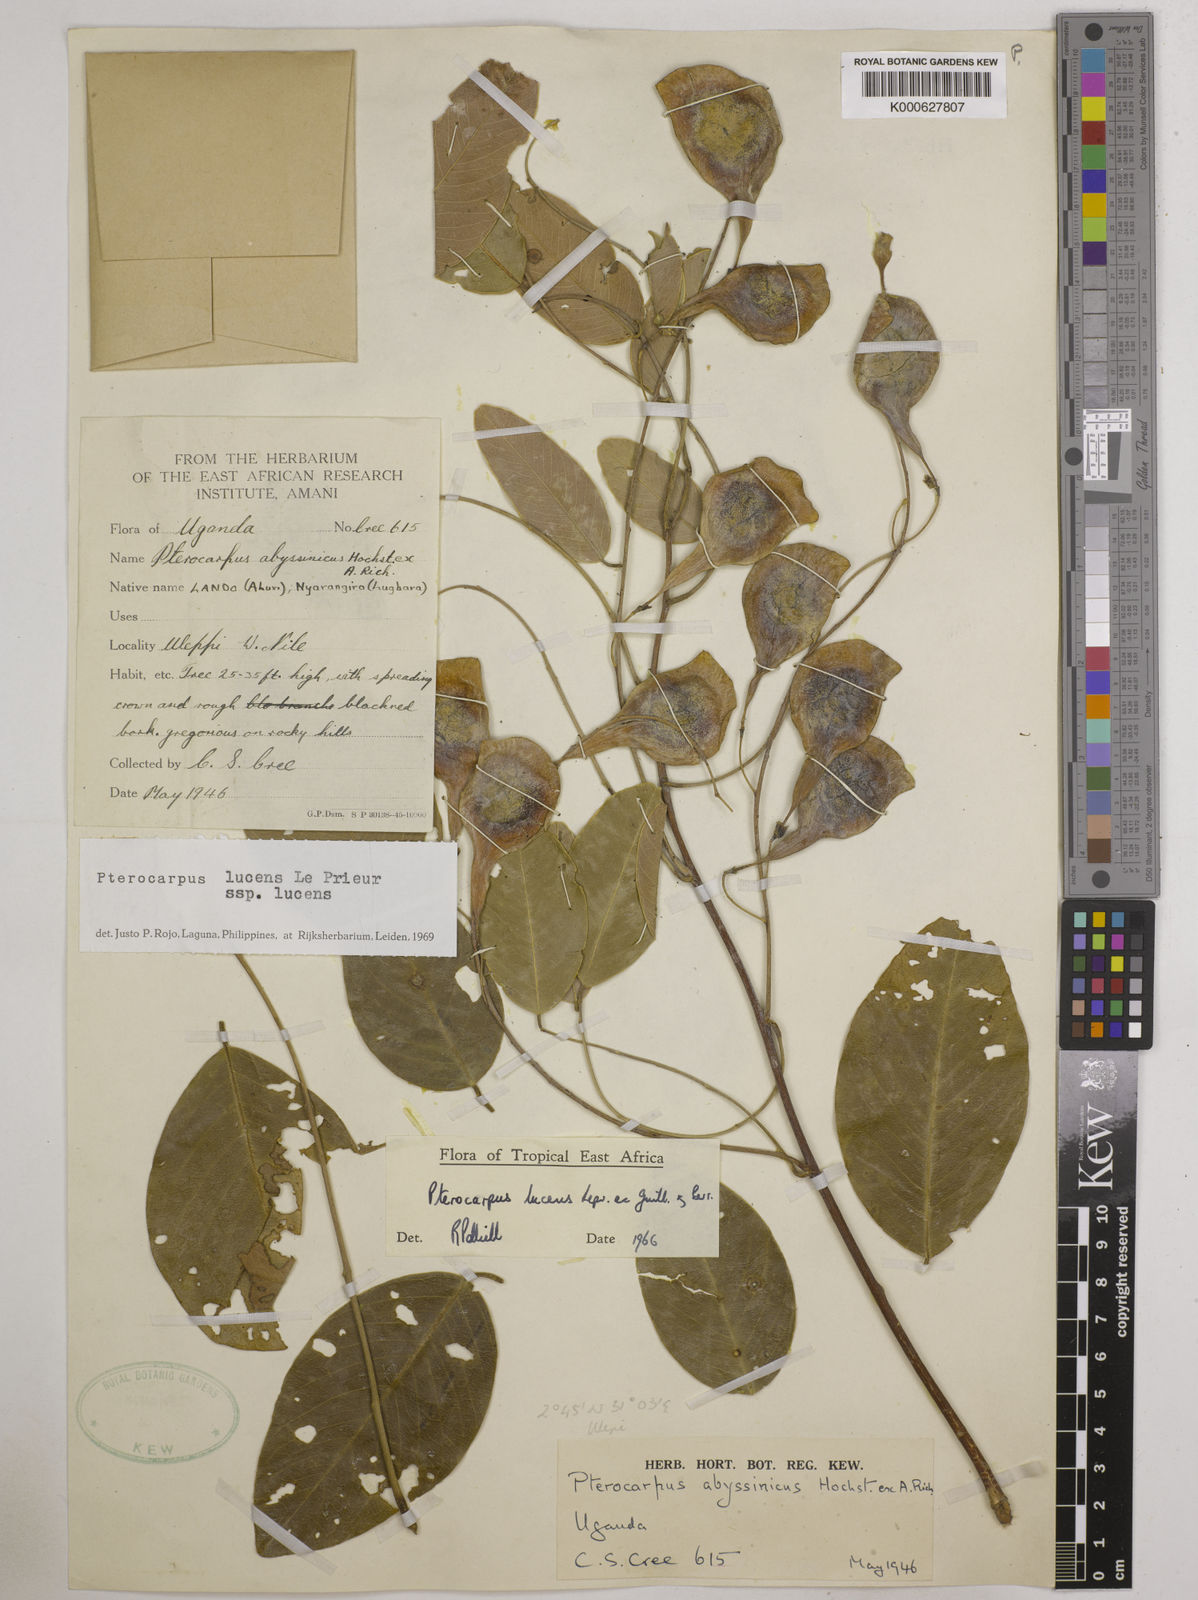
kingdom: Plantae
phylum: Tracheophyta
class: Magnoliopsida
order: Fabales
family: Fabaceae
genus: Pterocarpus
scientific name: Pterocarpus lucens
